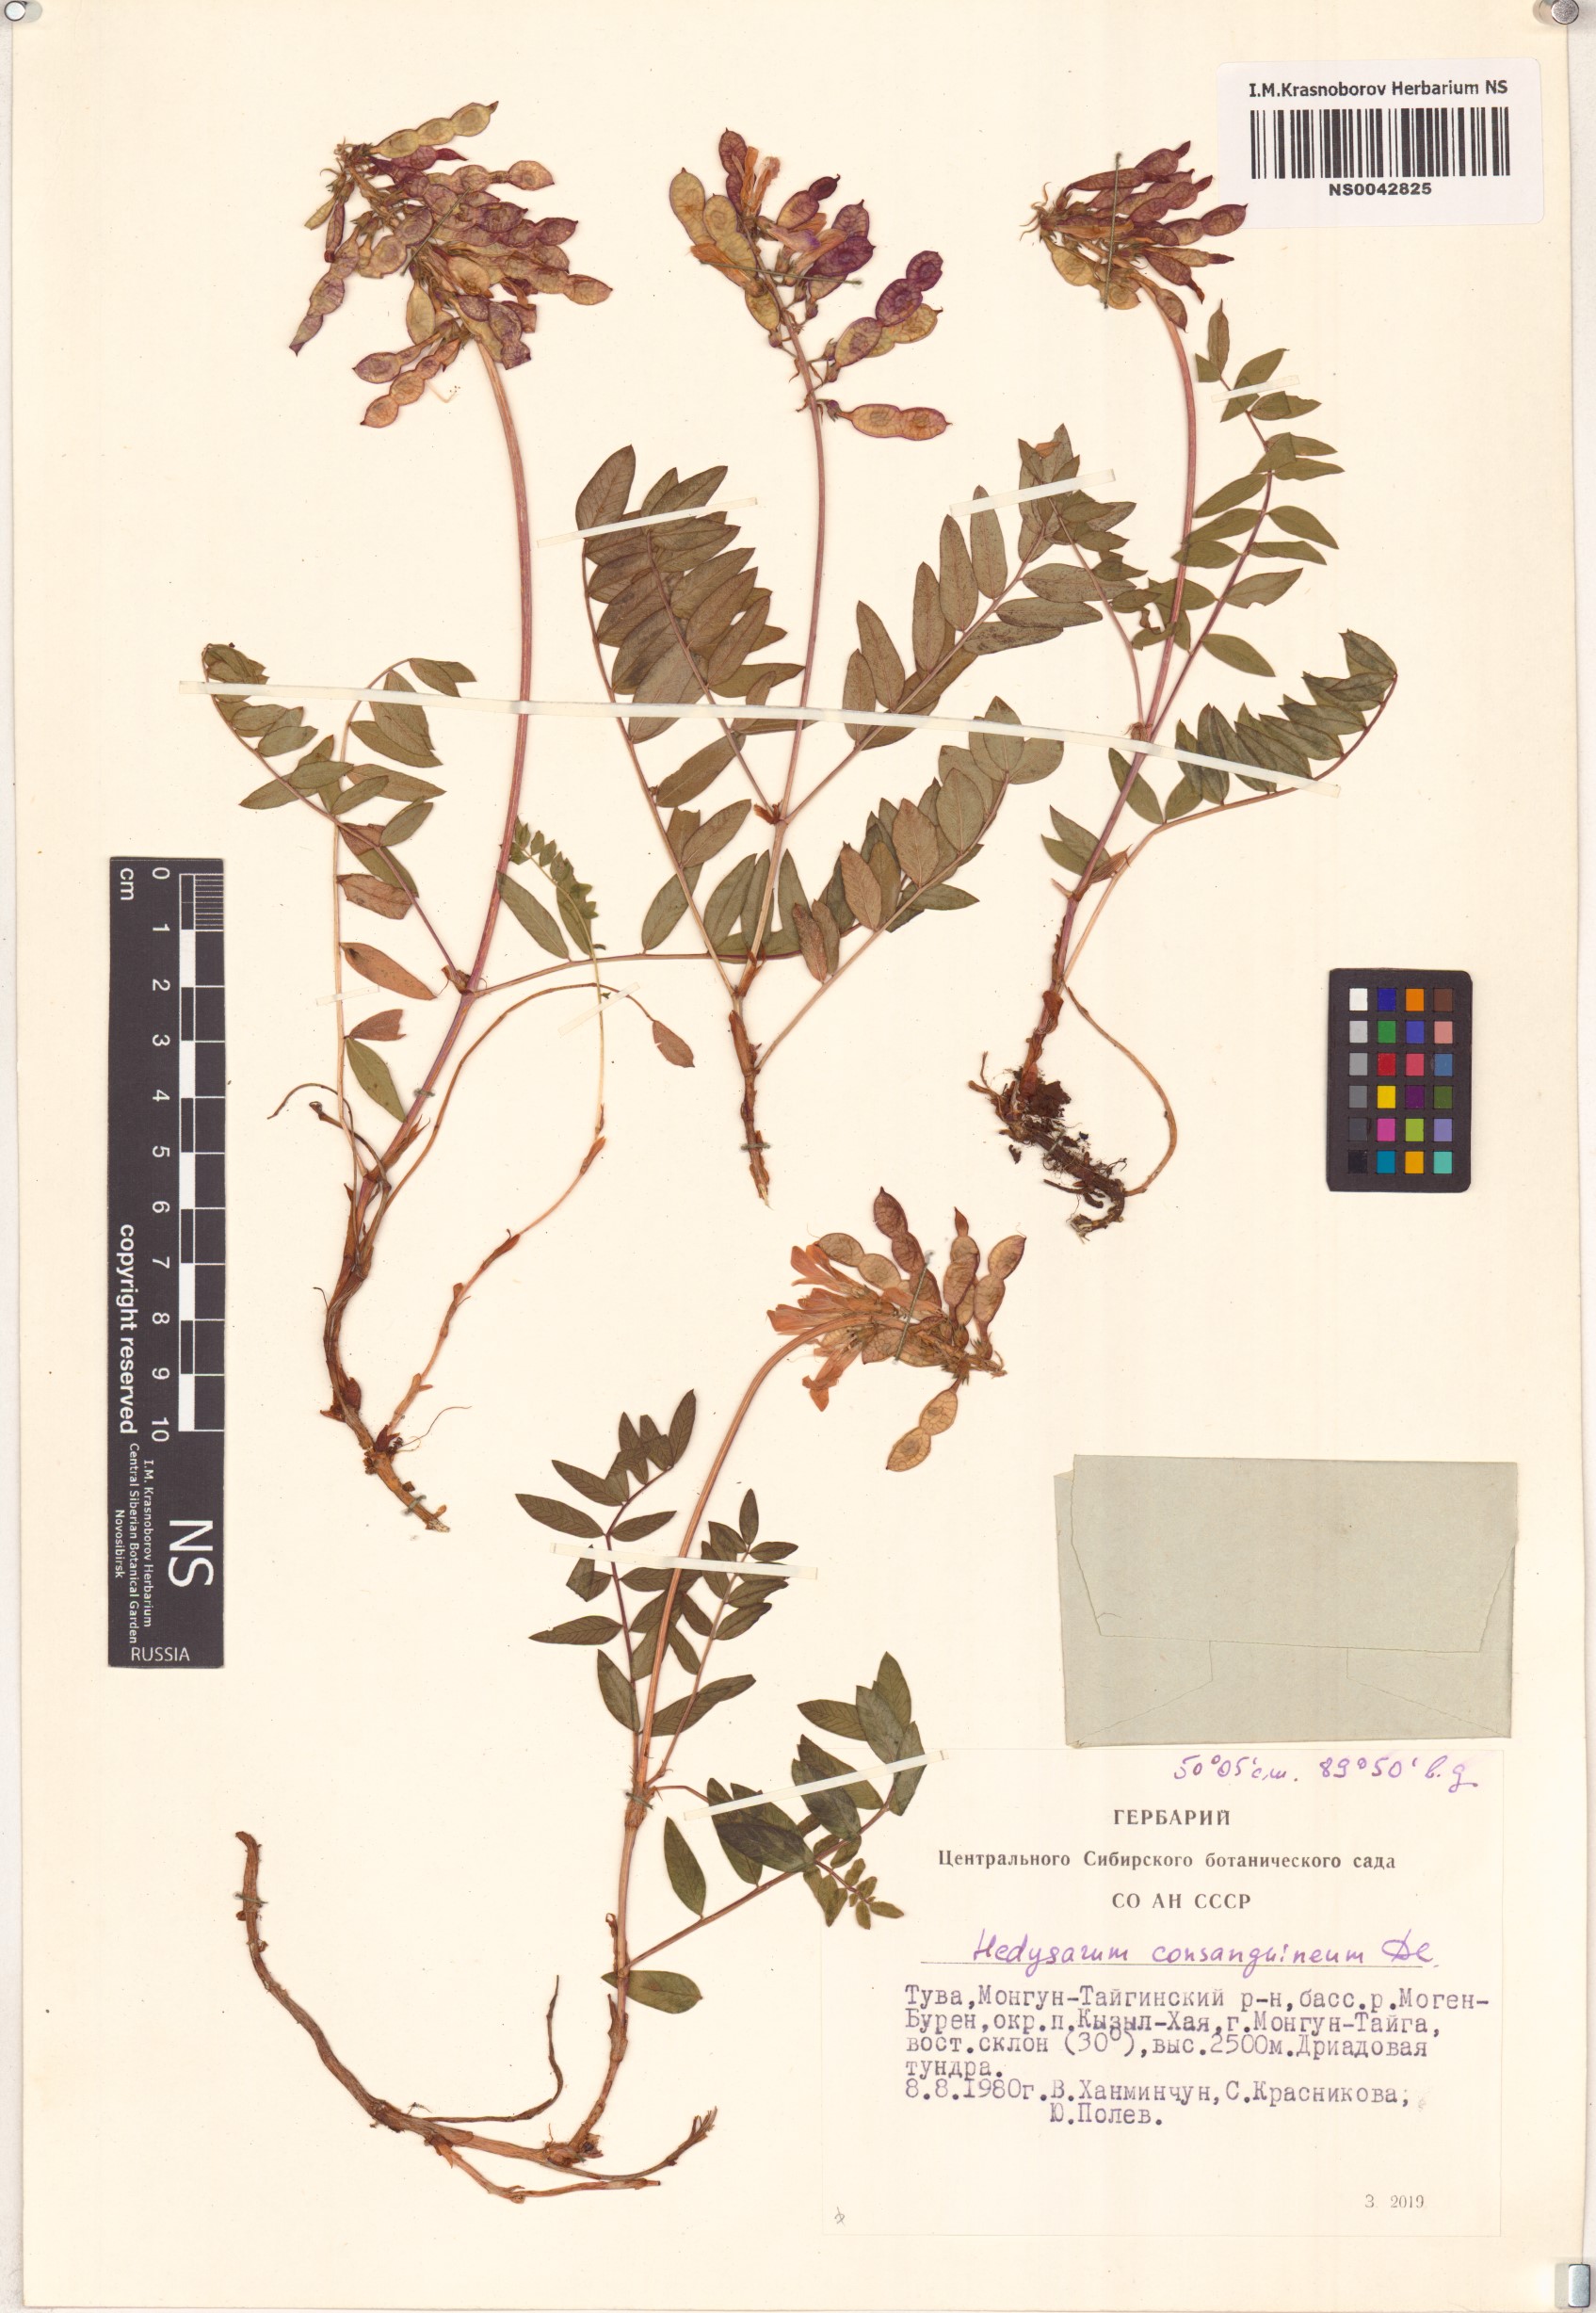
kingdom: Plantae
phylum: Tracheophyta
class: Magnoliopsida
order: Fabales
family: Fabaceae
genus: Hedysarum
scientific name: Hedysarum consanguineum
